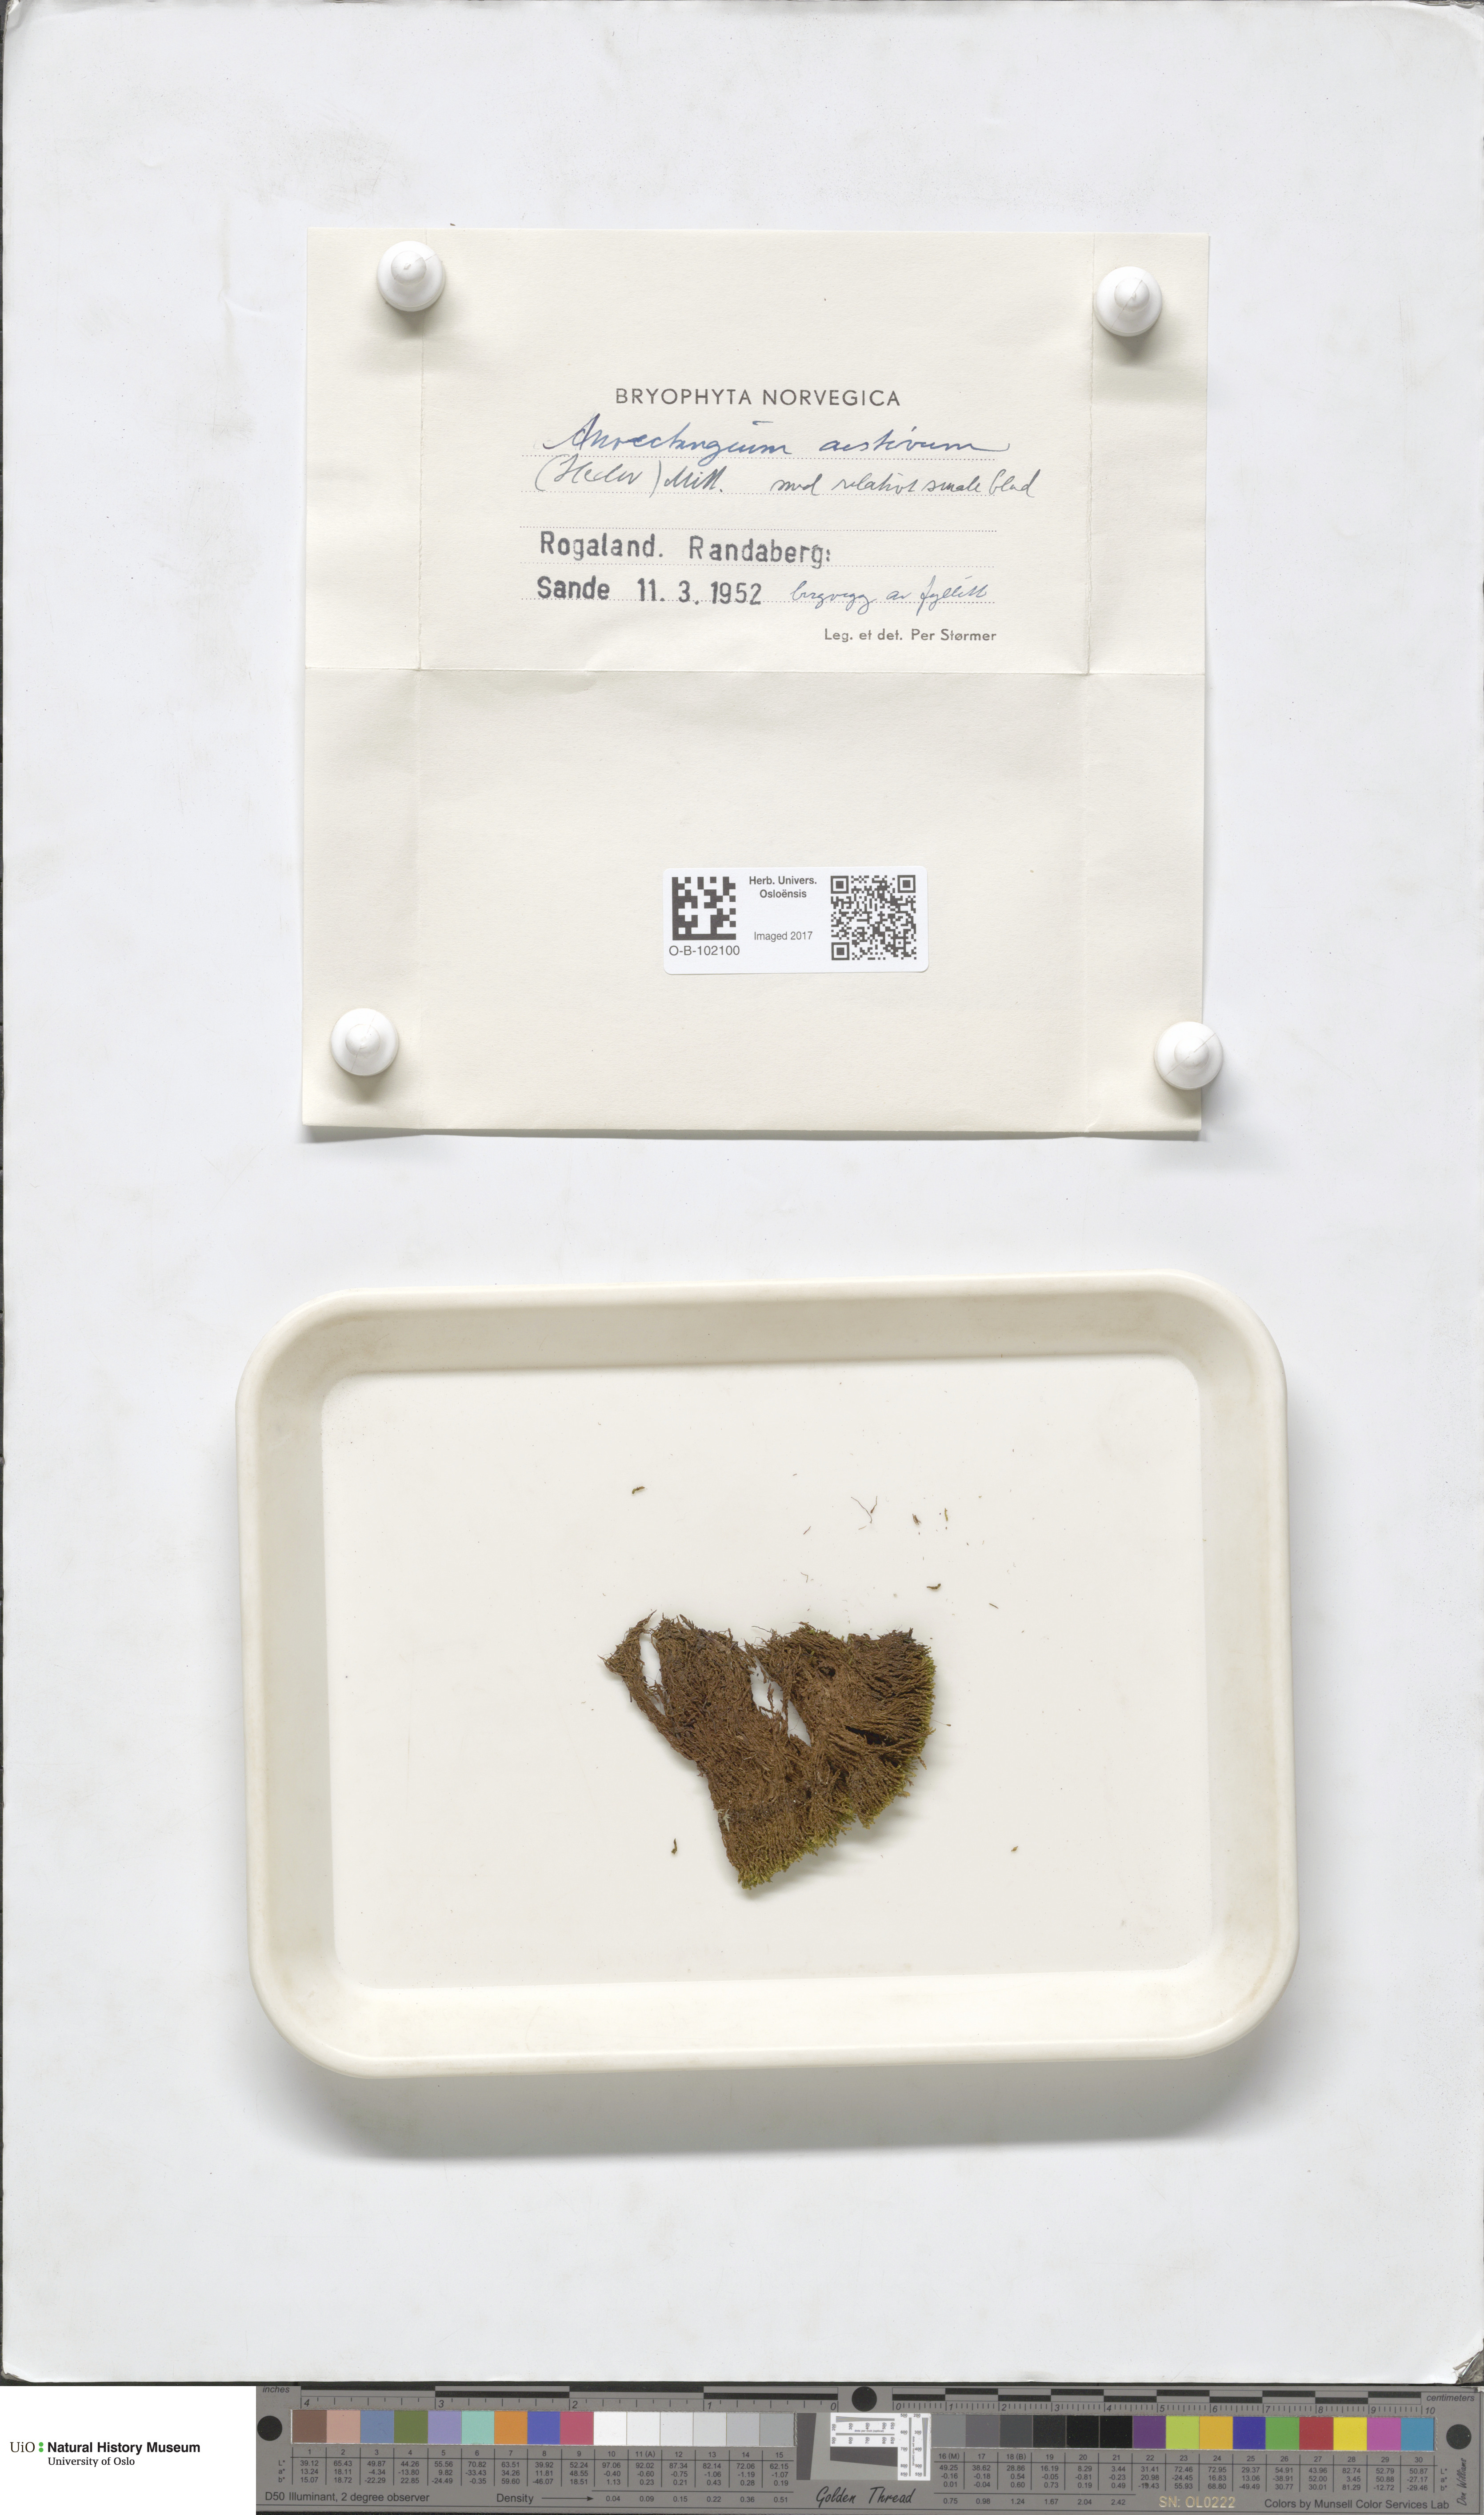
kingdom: Plantae
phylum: Bryophyta
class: Bryopsida
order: Pottiales
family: Pottiaceae
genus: Anoectangium
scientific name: Anoectangium aestivum
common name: Summer-moss
